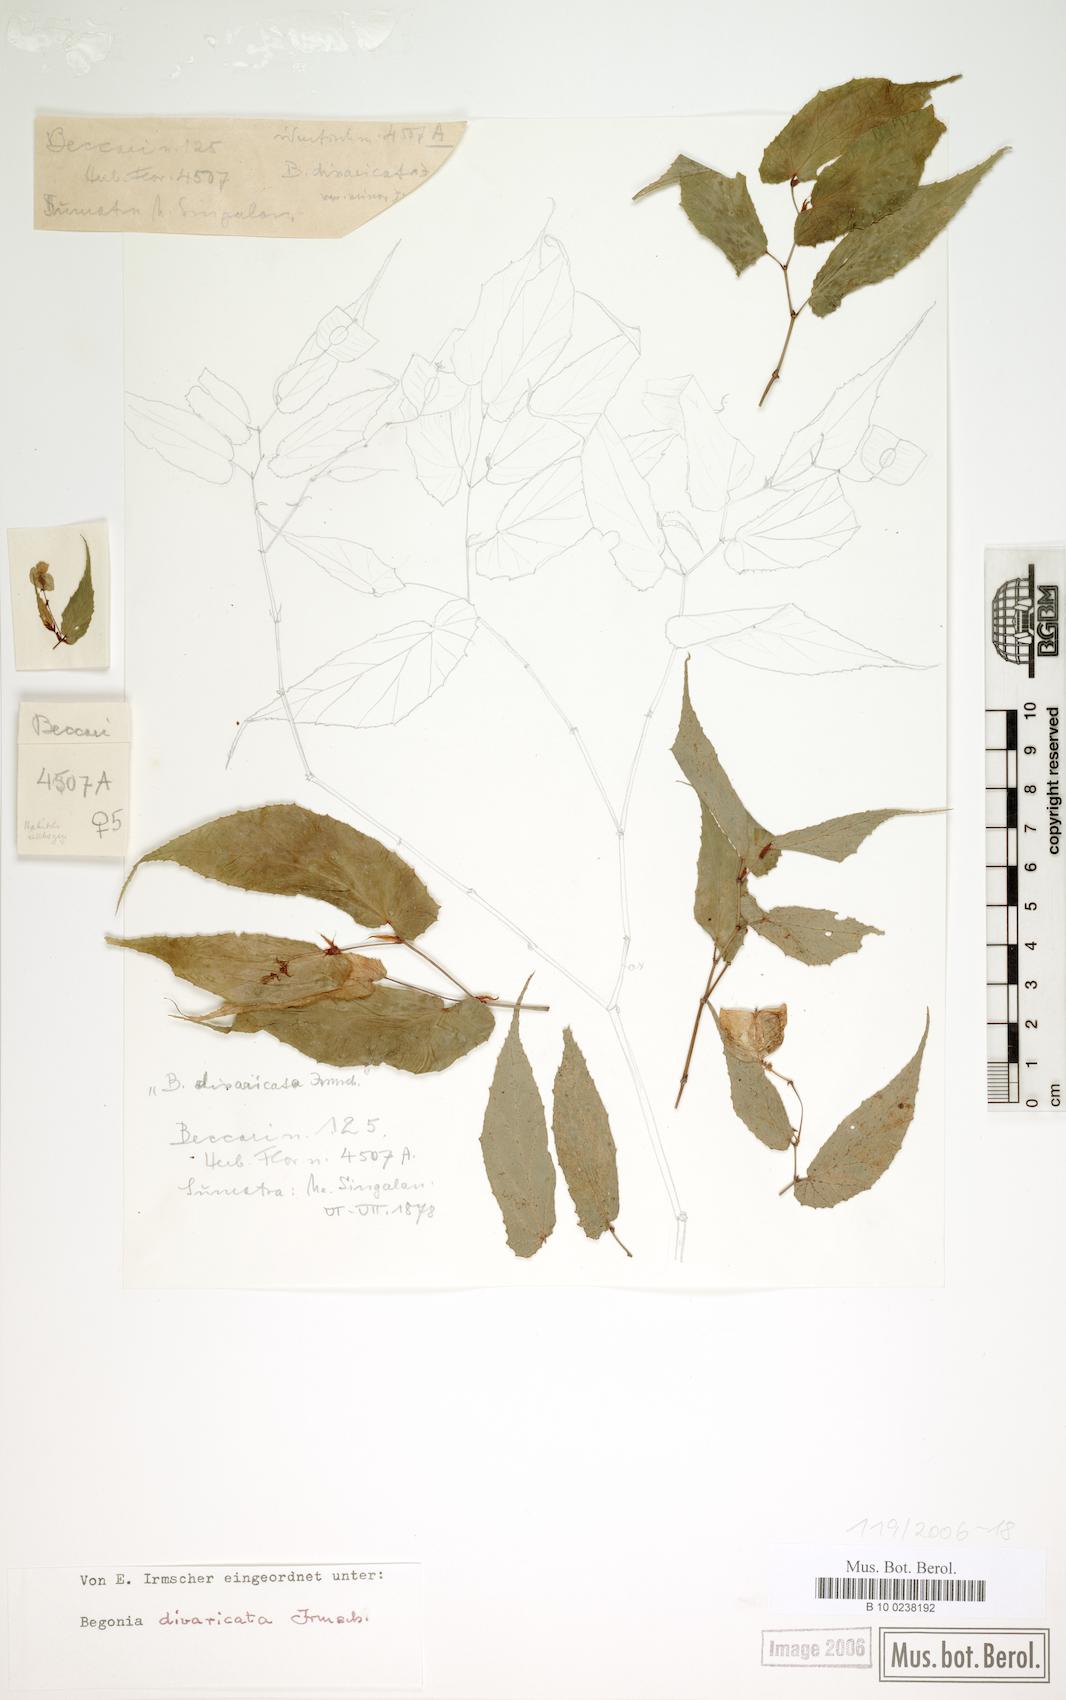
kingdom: Plantae
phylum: Tracheophyta
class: Magnoliopsida
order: Cucurbitales
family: Begoniaceae
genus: Begonia
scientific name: Begonia divaricata
